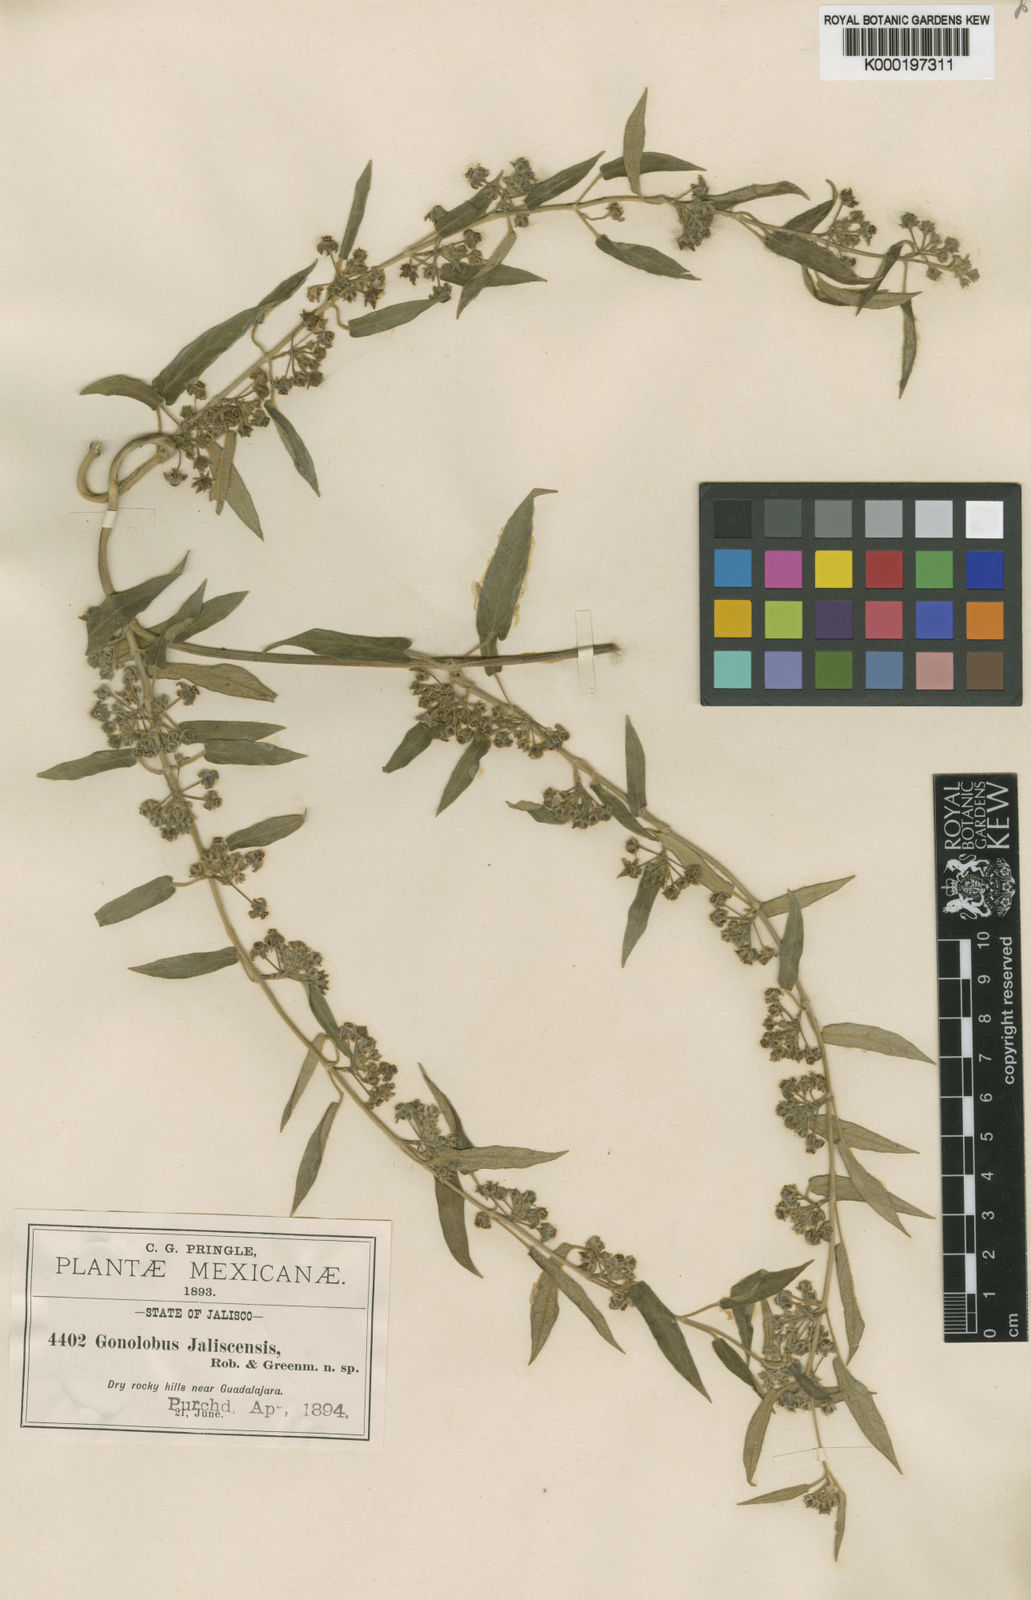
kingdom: Plantae
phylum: Tracheophyta
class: Magnoliopsida
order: Gentianales
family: Apocynaceae
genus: Gonolobus
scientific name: Gonolobus jaliscensis
